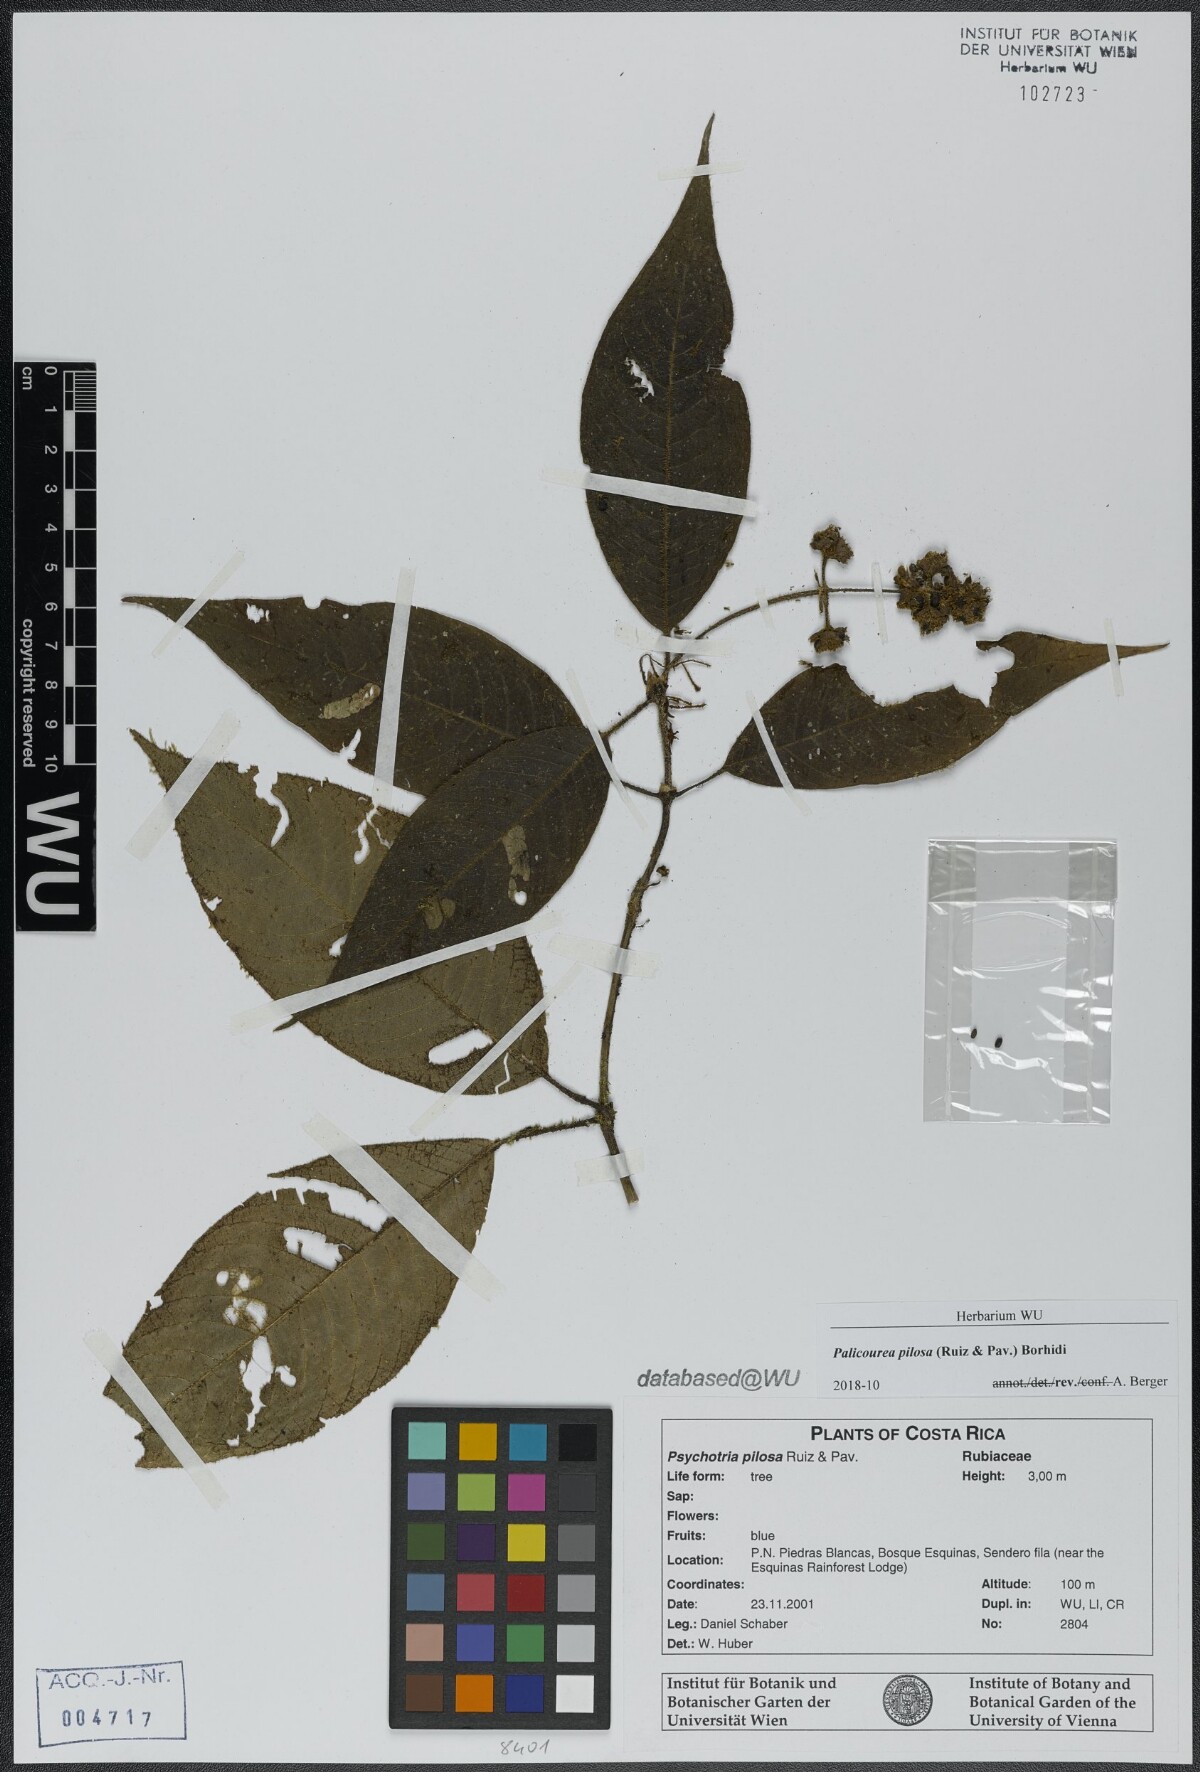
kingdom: Plantae
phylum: Tracheophyta
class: Magnoliopsida
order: Gentianales
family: Rubiaceae
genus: Palicourea
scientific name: Palicourea pilosa
